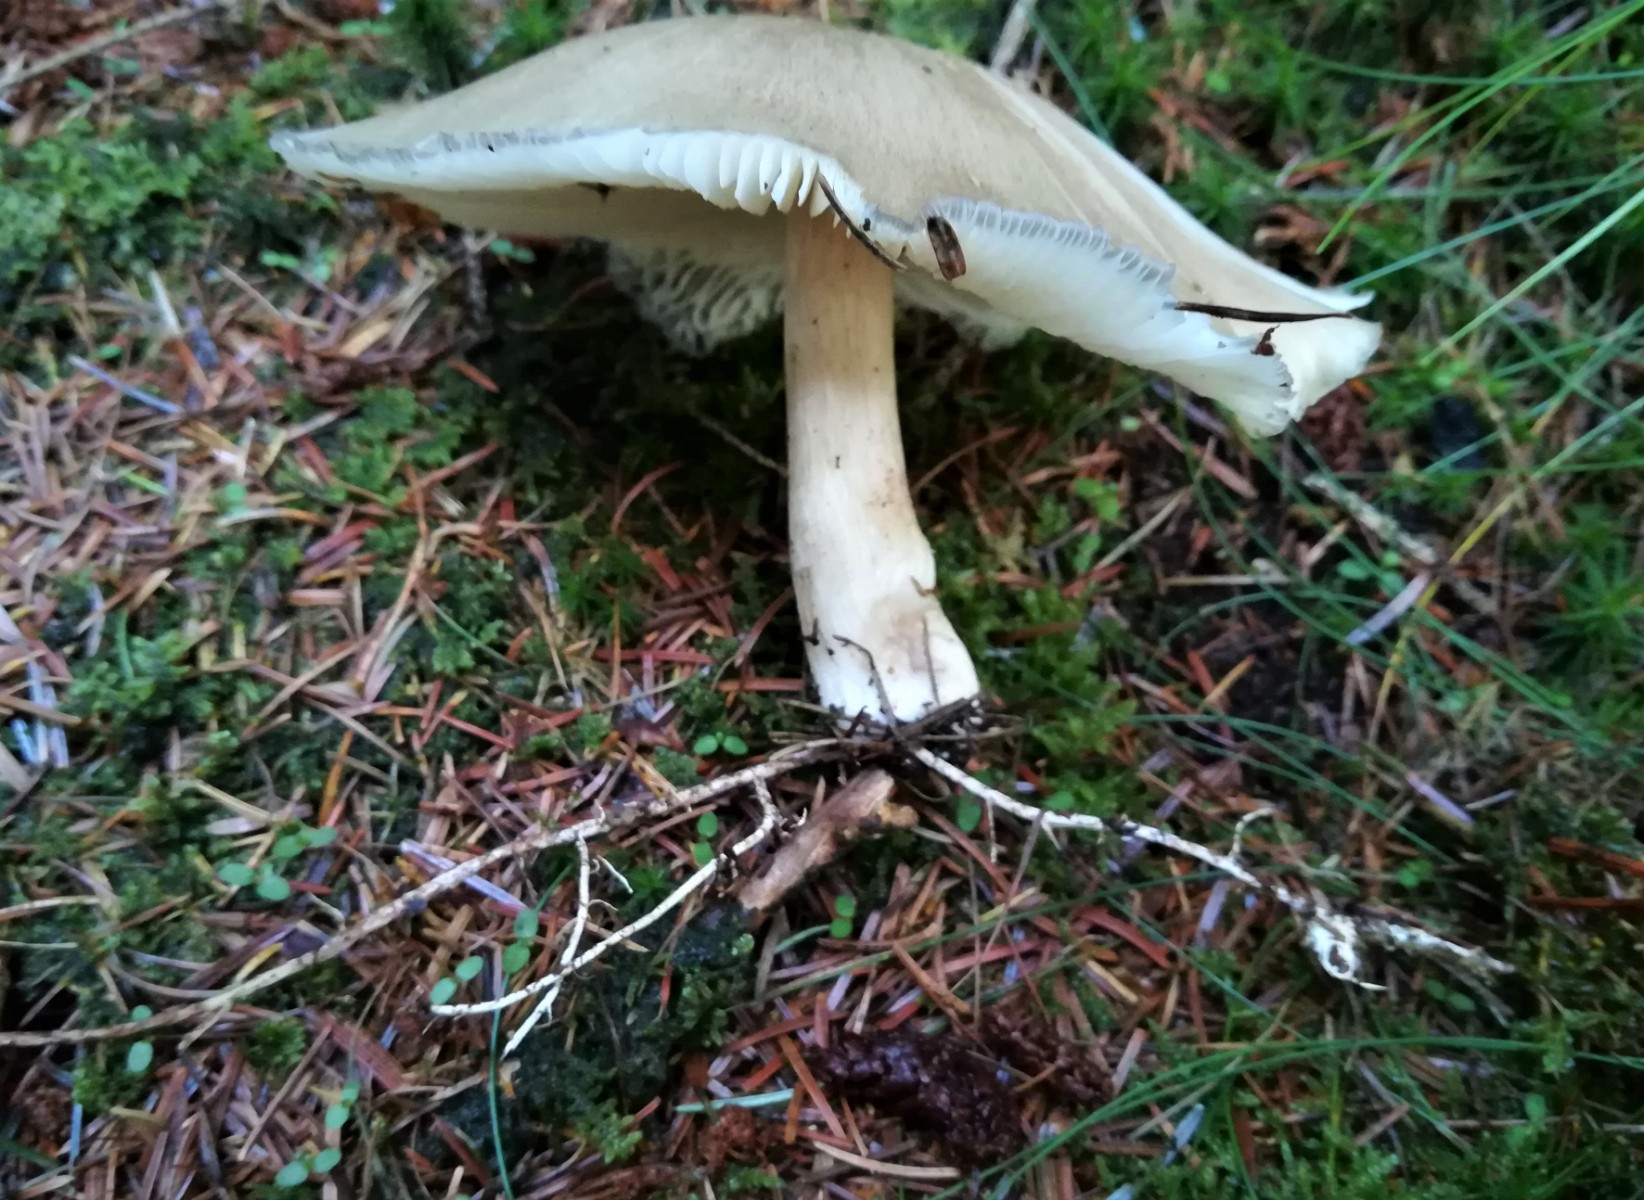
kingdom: Fungi
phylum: Basidiomycota
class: Agaricomycetes
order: Agaricales
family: Tricholomataceae
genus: Megacollybia
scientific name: Megacollybia platyphylla
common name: bredbladet væbnerhat
